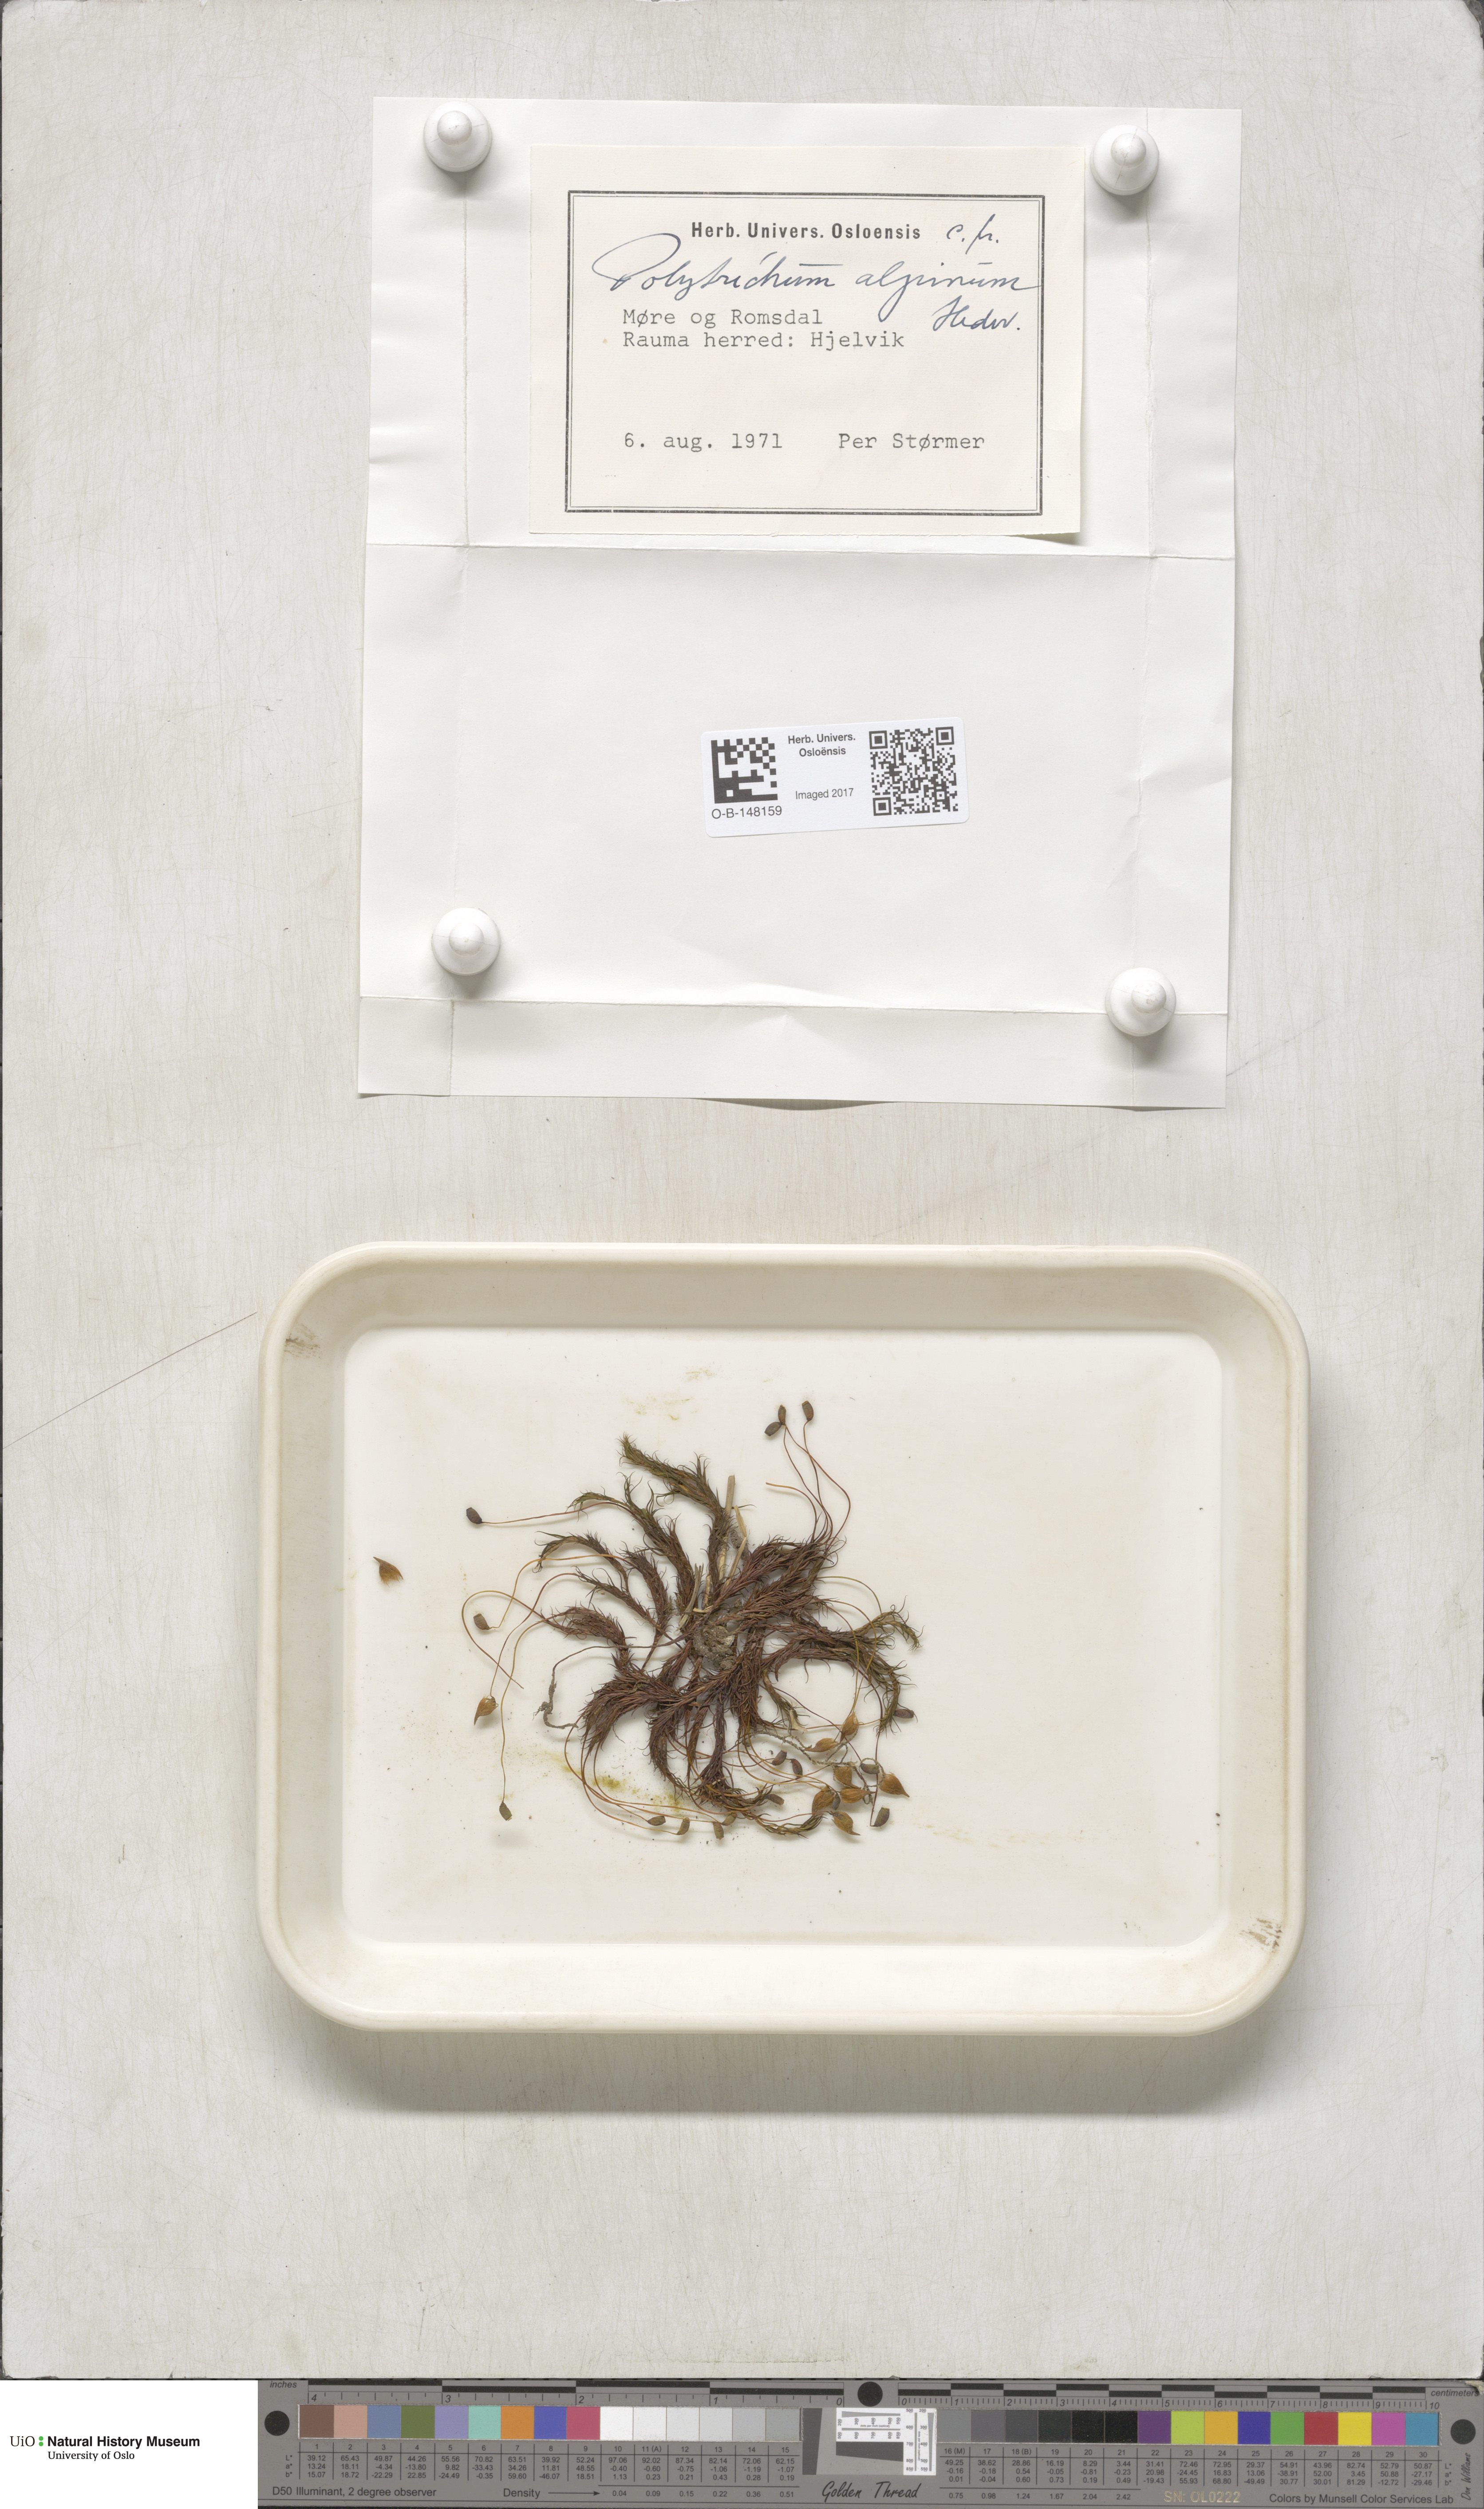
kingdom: Plantae
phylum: Bryophyta
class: Polytrichopsida
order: Polytrichales
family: Polytrichaceae
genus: Polytrichastrum
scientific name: Polytrichastrum alpinum
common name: Alpine haircap
